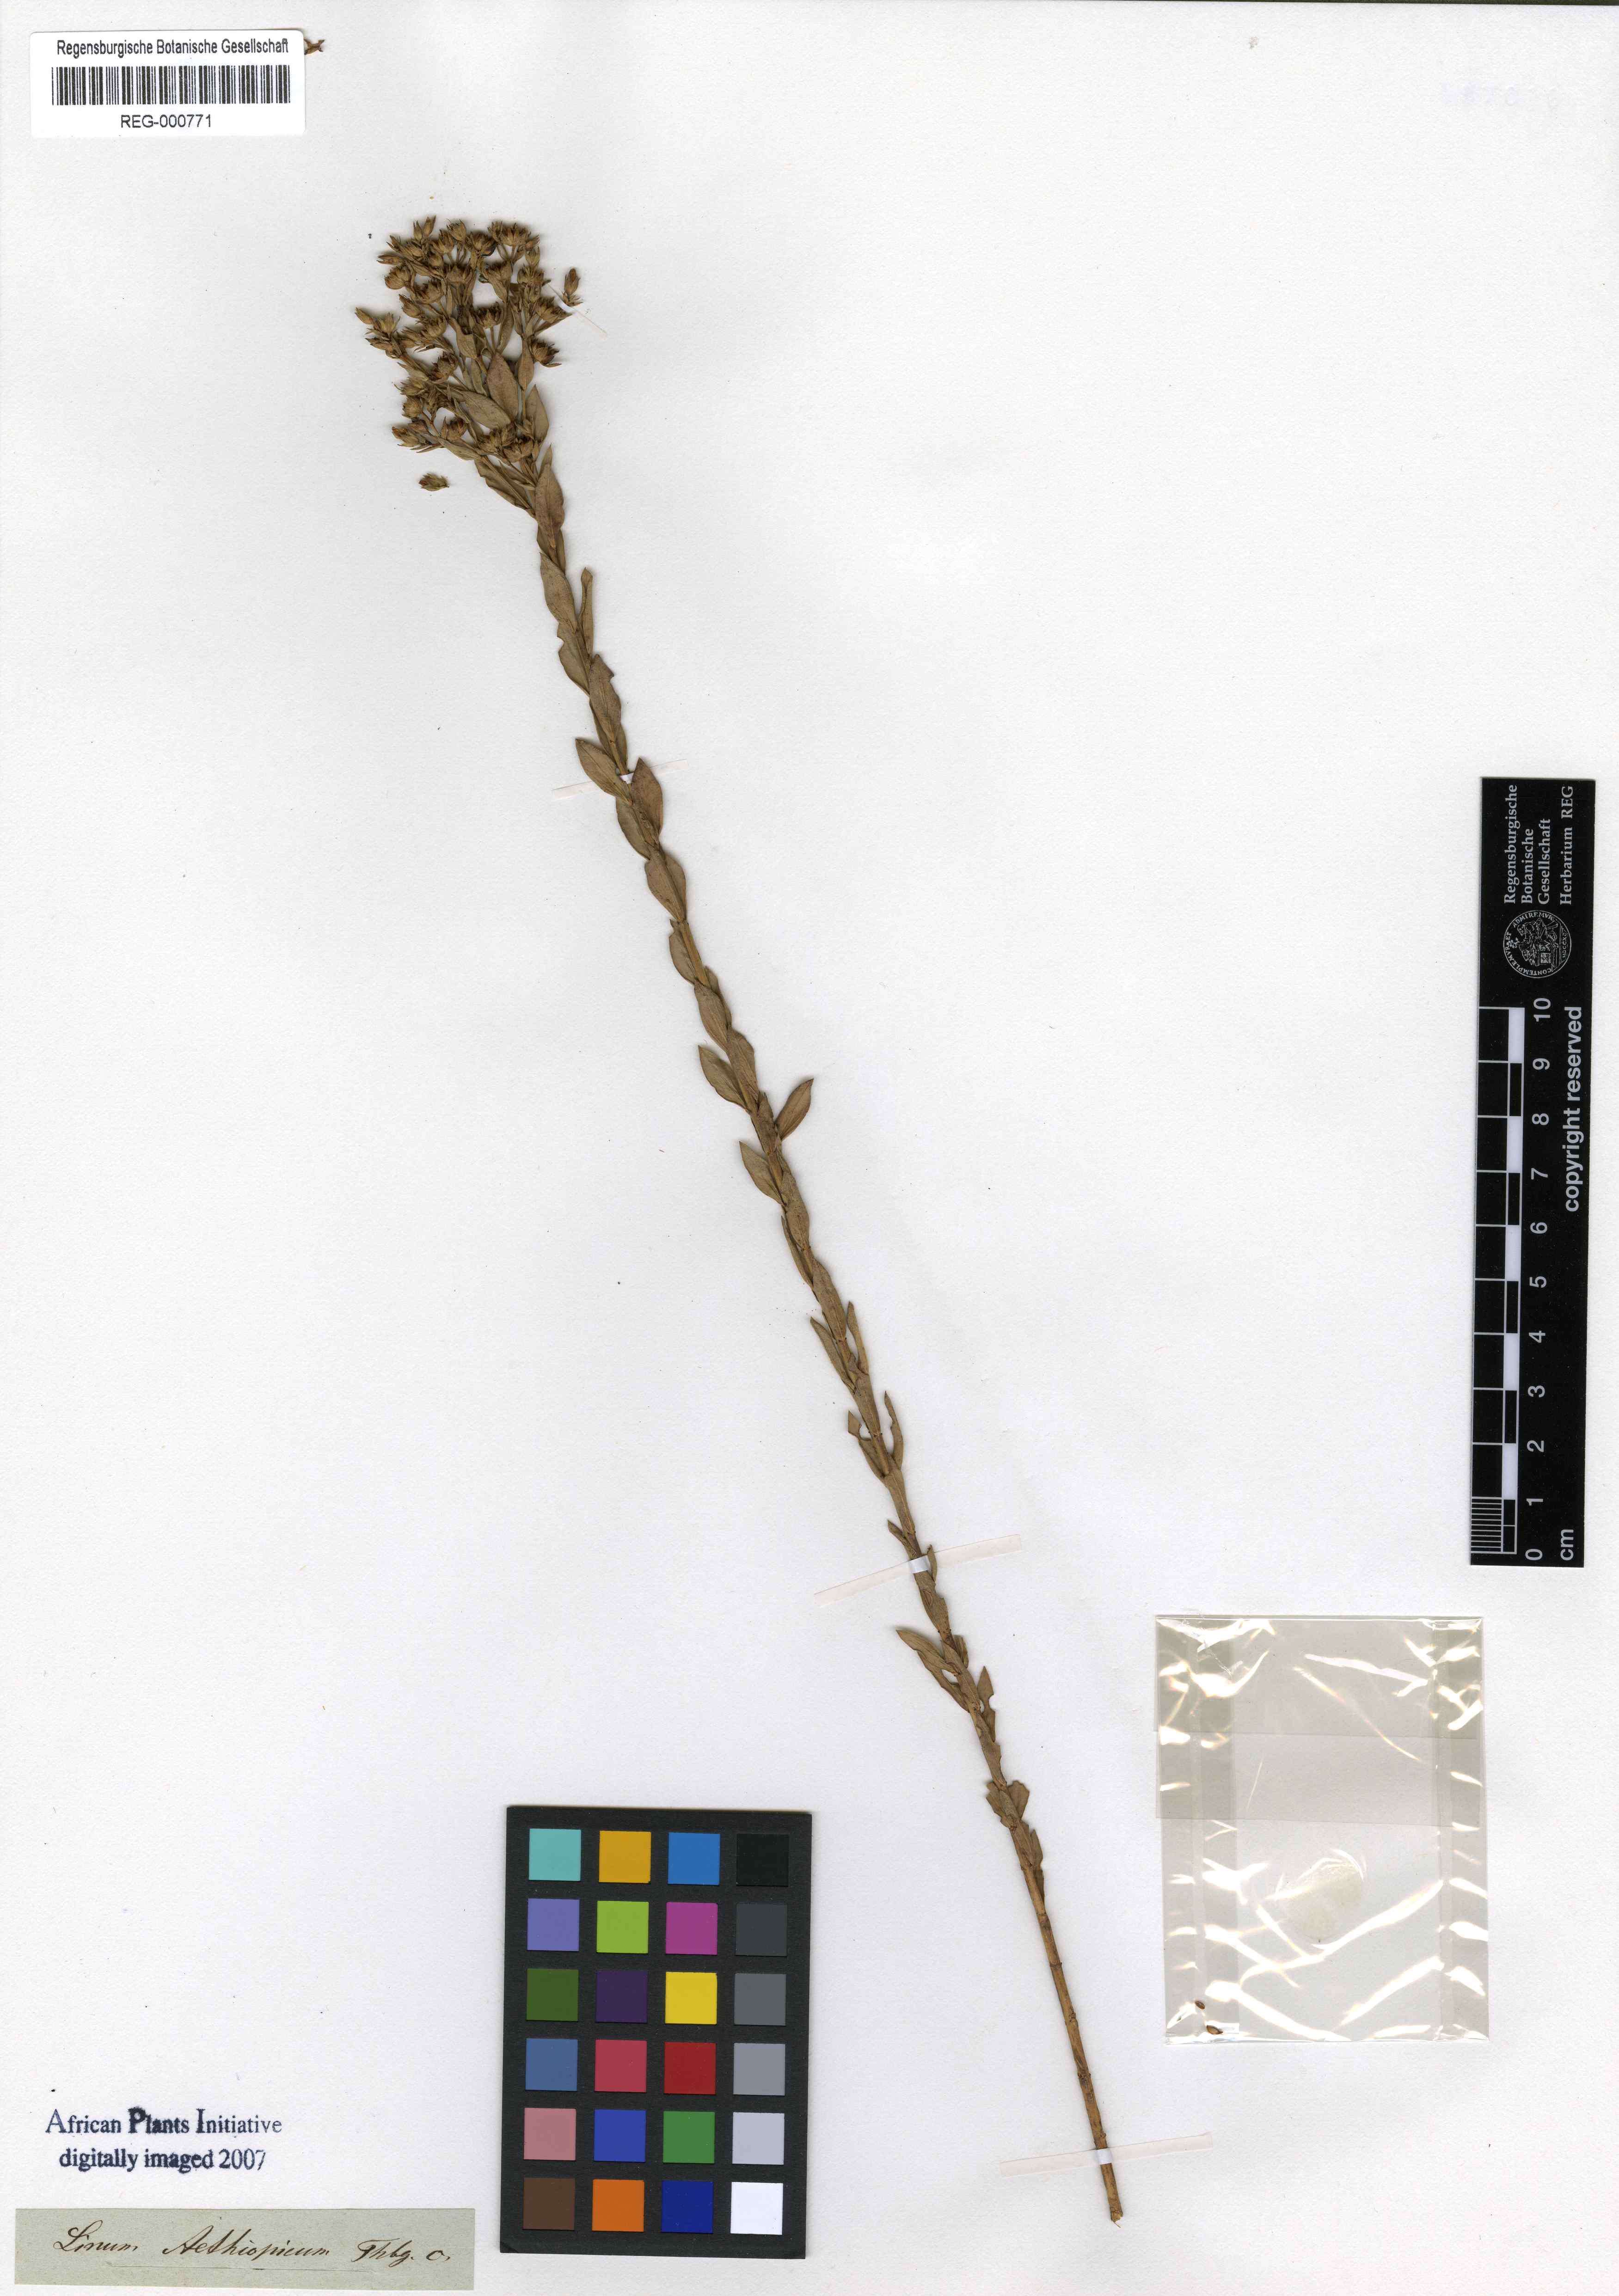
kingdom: Plantae
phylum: Tracheophyta
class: Magnoliopsida
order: Malpighiales
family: Linaceae
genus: Linum
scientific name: Linum aethiopicum
